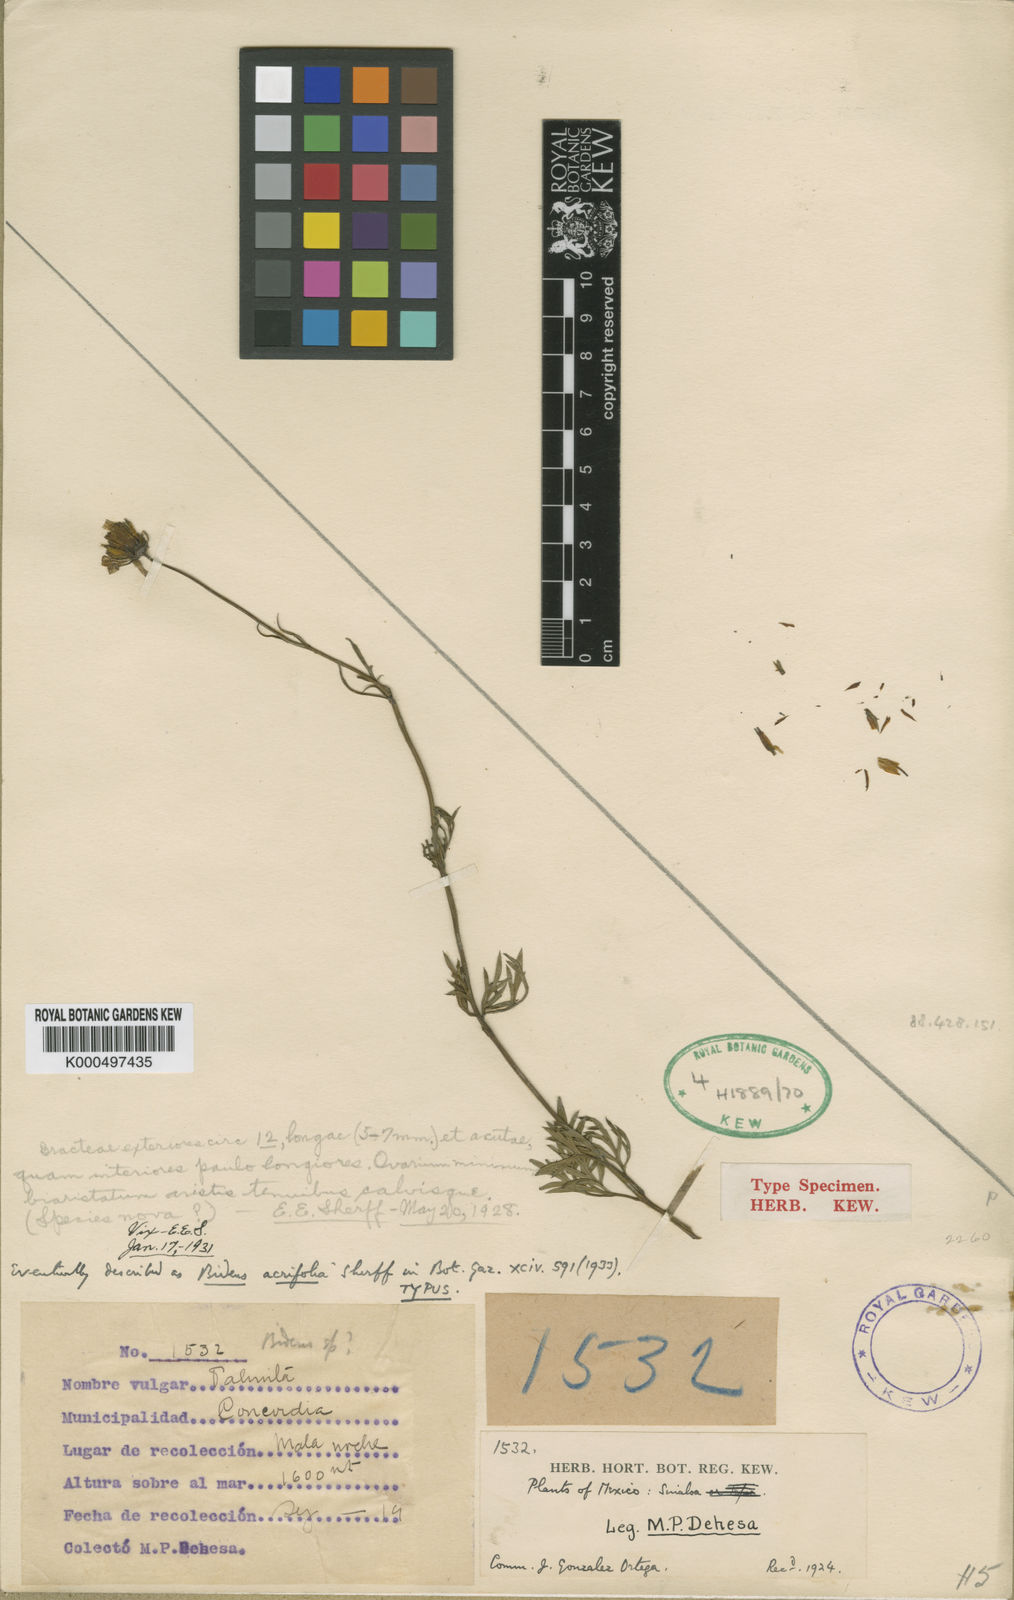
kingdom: Plantae
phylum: Tracheophyta
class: Magnoliopsida
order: Asterales
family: Asteraceae
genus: Bidens
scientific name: Bidens acrifolia
